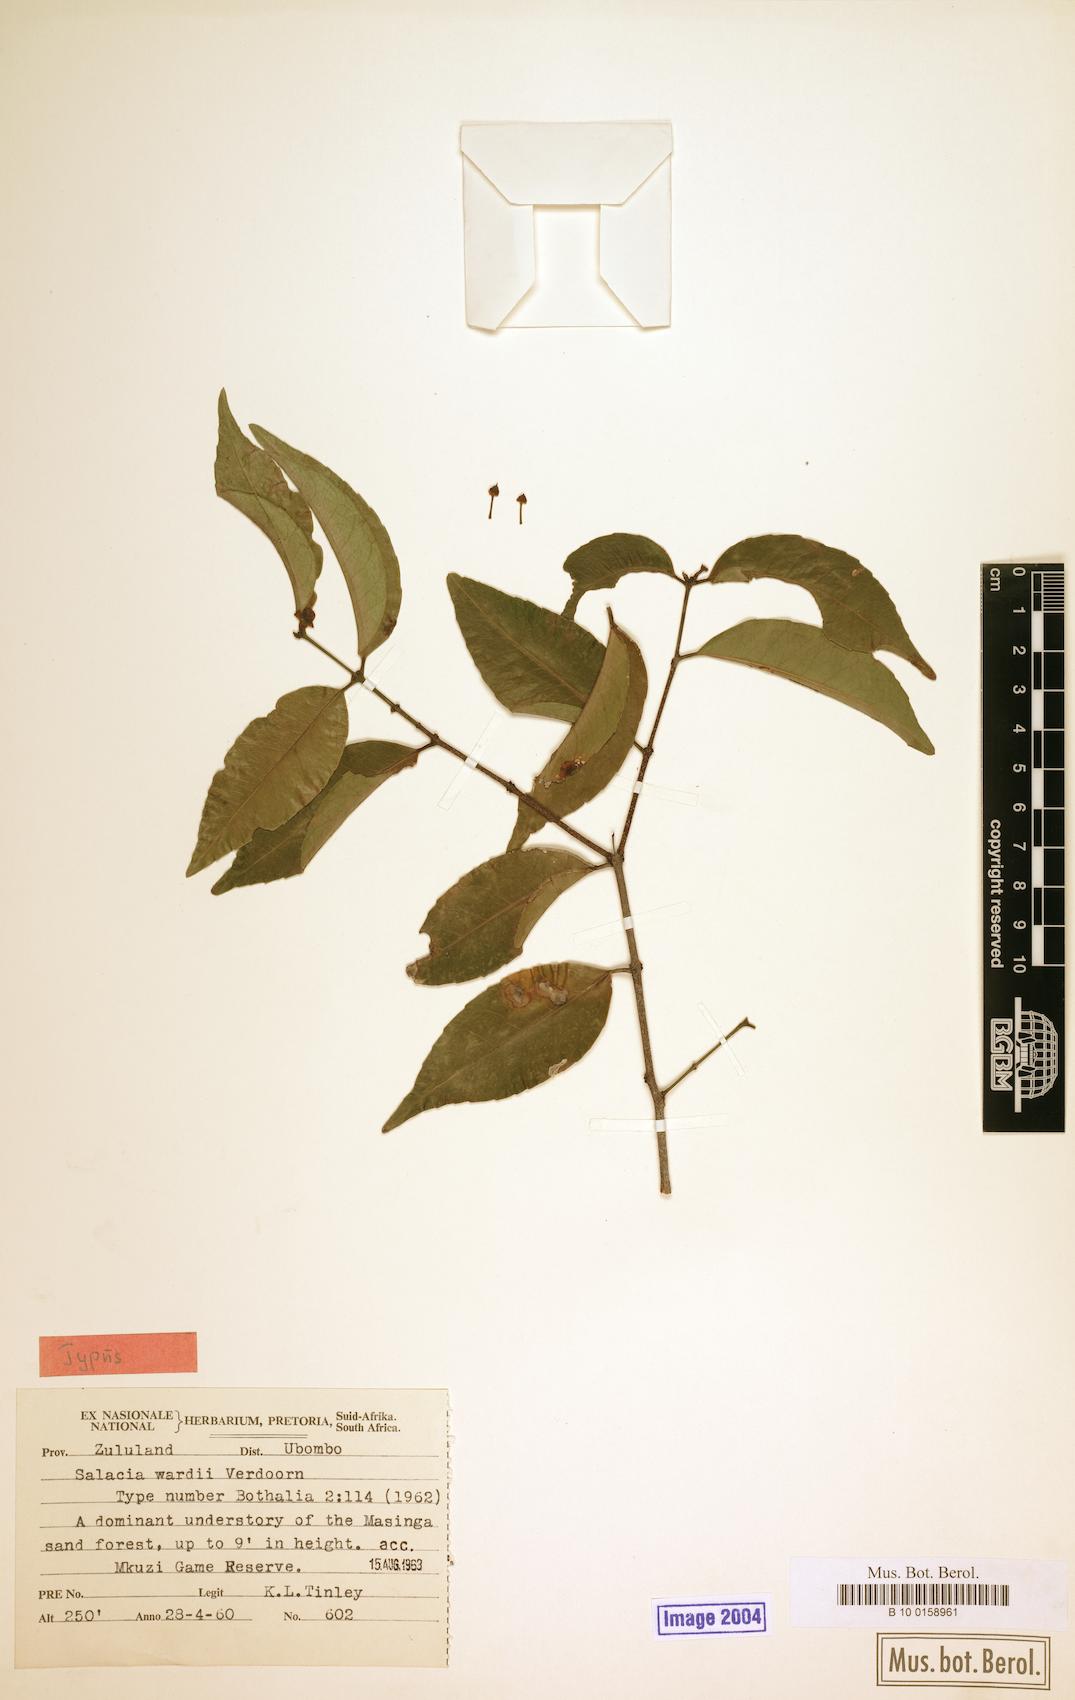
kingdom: Plantae
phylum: Tracheophyta
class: Magnoliopsida
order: Celastrales
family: Celastraceae
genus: Salacia
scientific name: Salacia leptoclada
